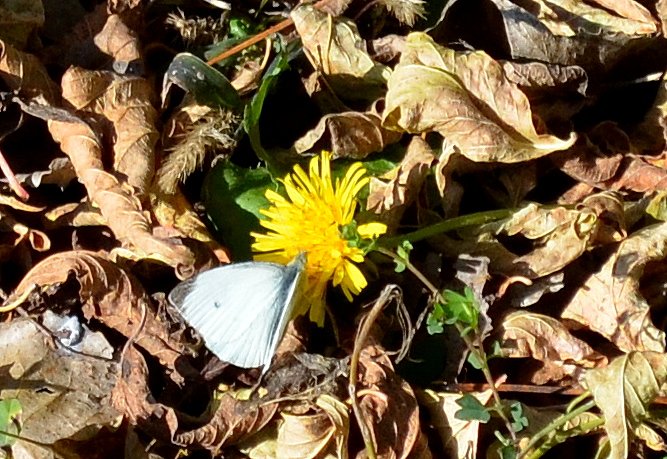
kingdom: Animalia
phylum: Arthropoda
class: Insecta
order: Lepidoptera
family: Pieridae
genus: Pieris
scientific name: Pieris rapae
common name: Cabbage White
